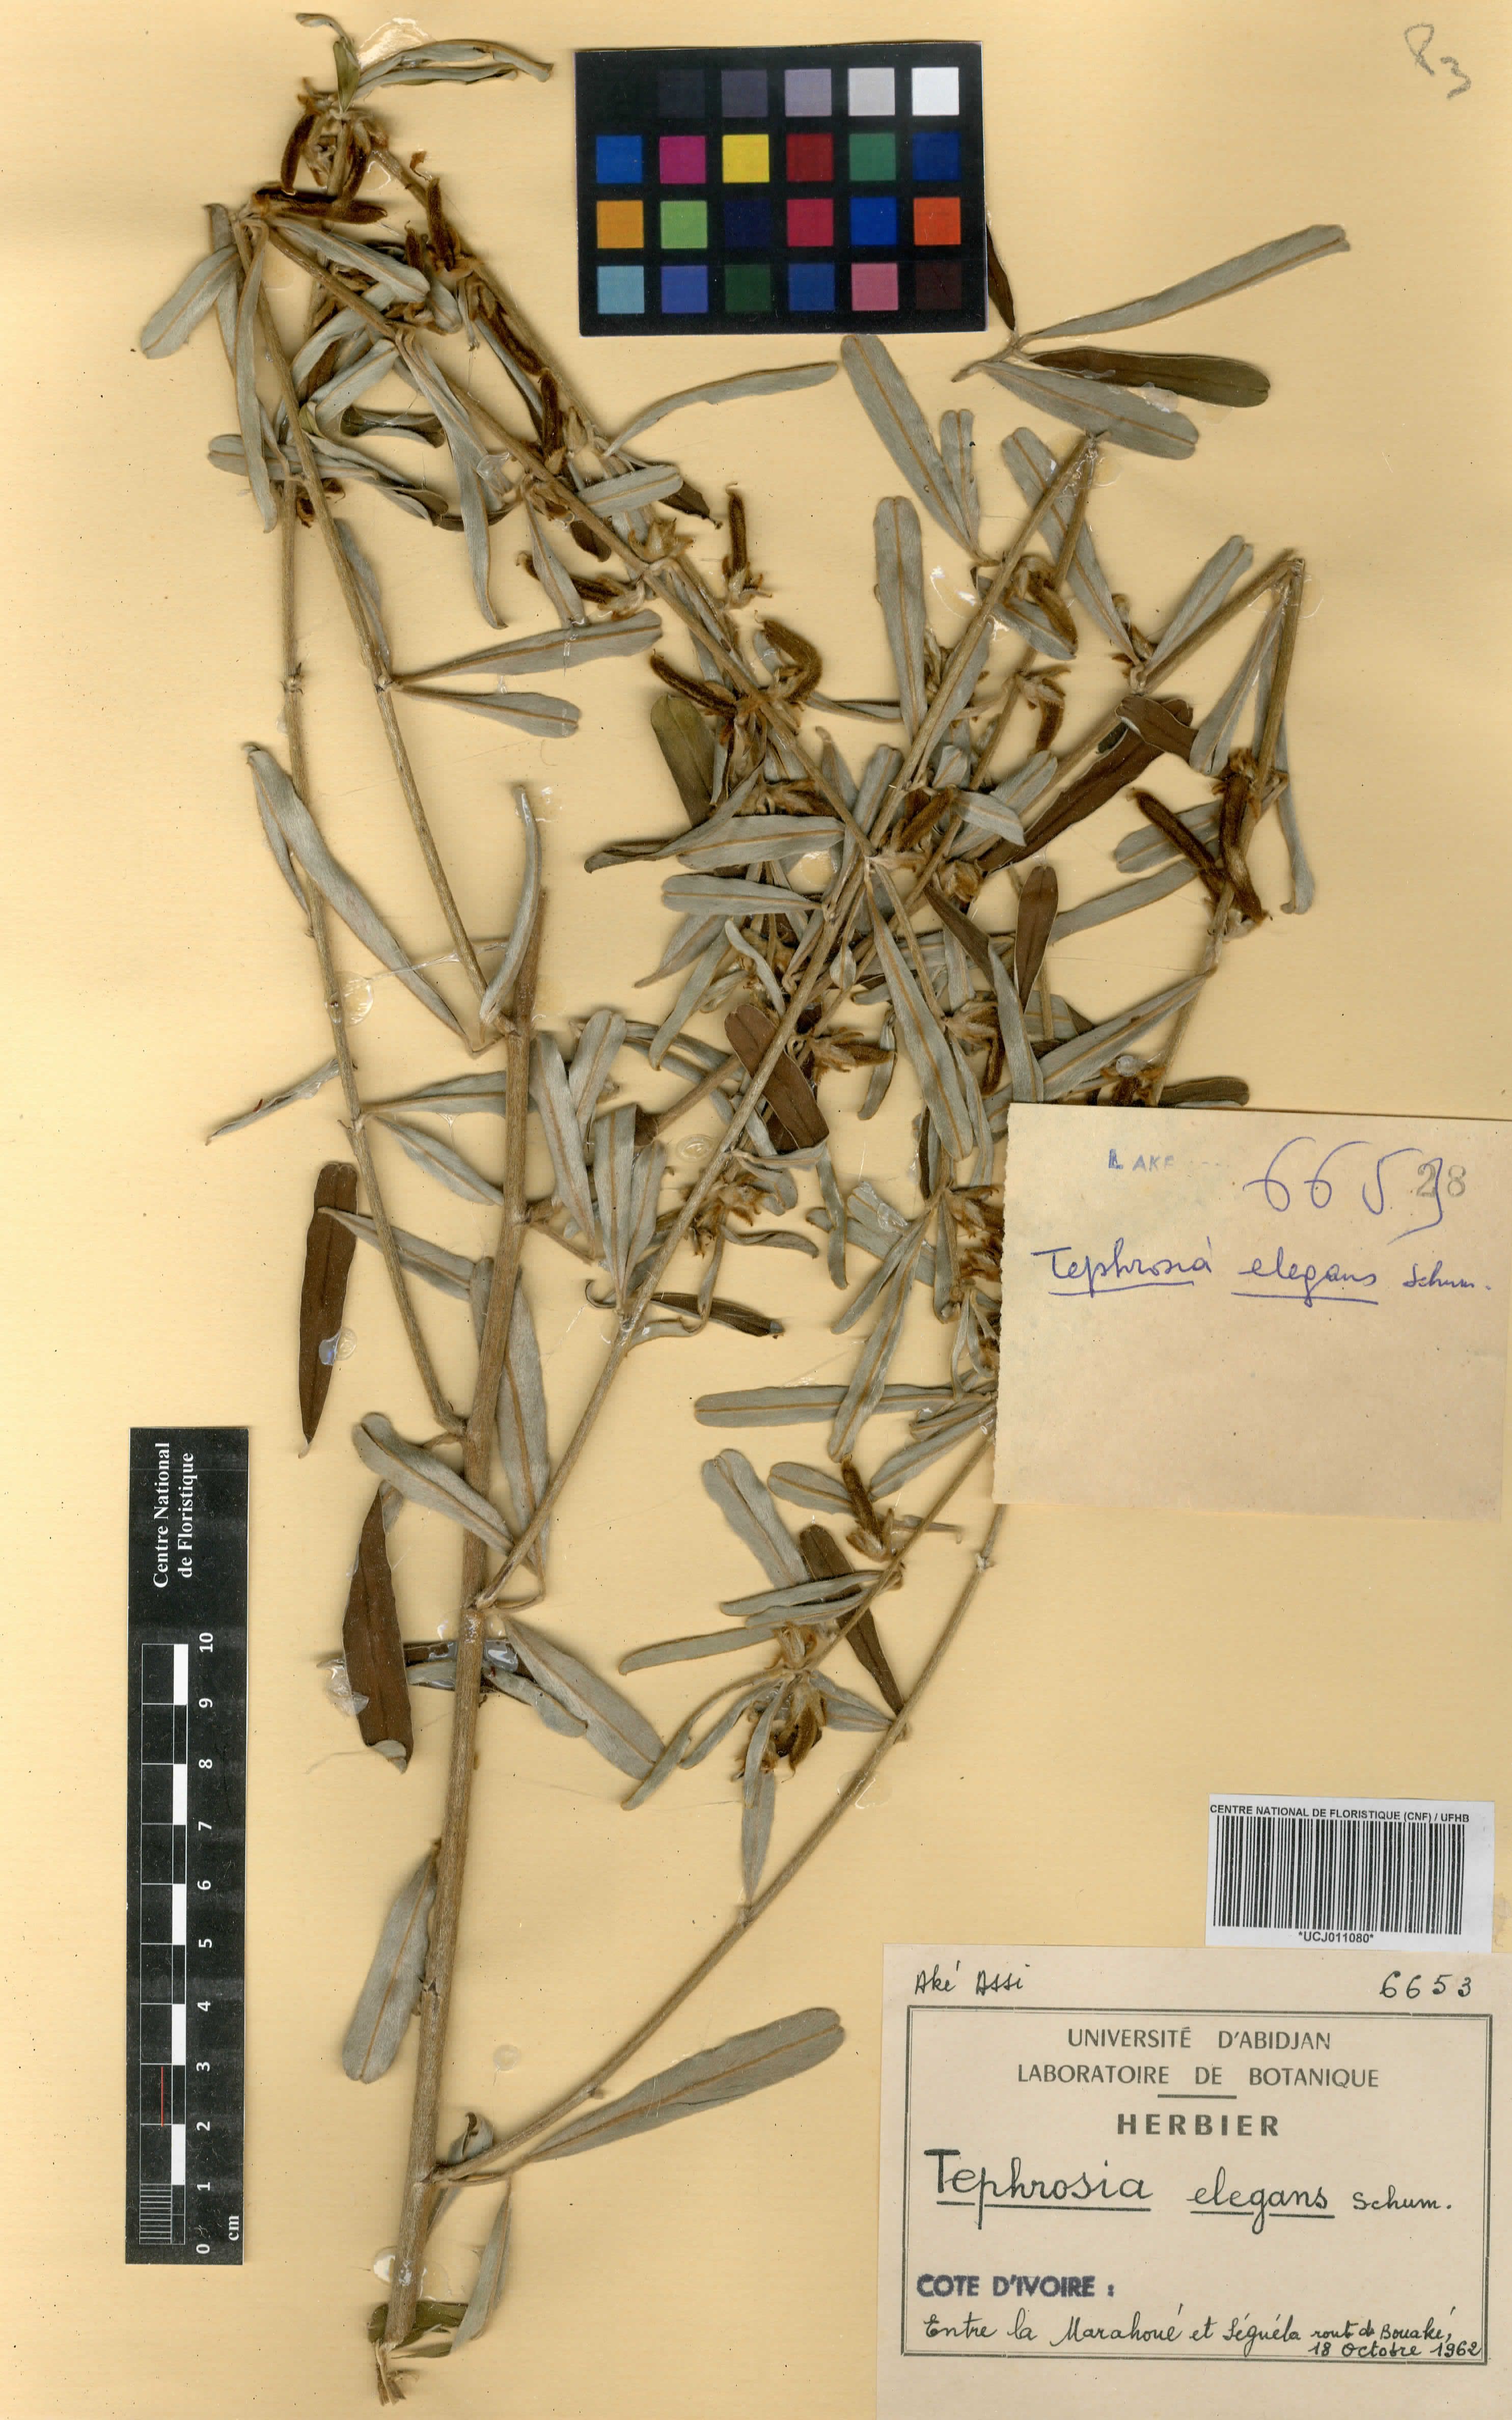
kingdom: Plantae
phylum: Tracheophyta
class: Magnoliopsida
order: Fabales
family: Fabaceae
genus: Tephrosia
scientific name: Tephrosia elegans
